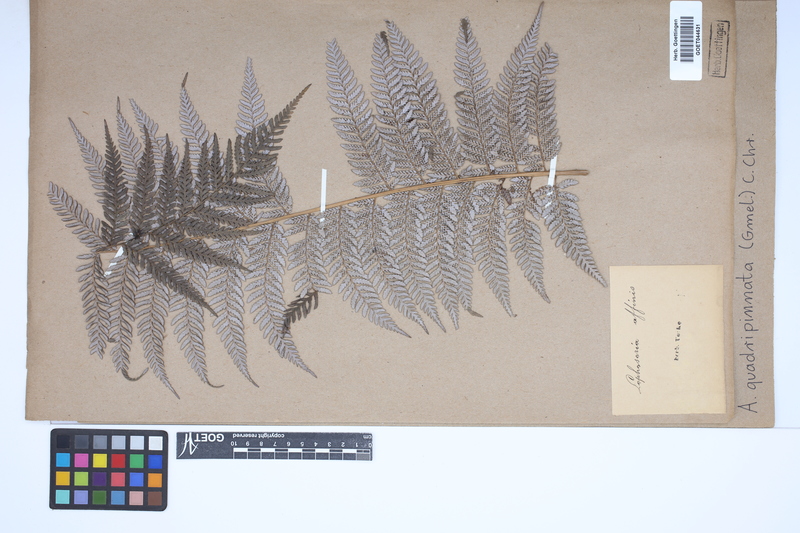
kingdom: Plantae
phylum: Tracheophyta
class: Polypodiopsida
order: Cyatheales
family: Dicksoniaceae
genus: Lophosoria
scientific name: Lophosoria quadripinnata
